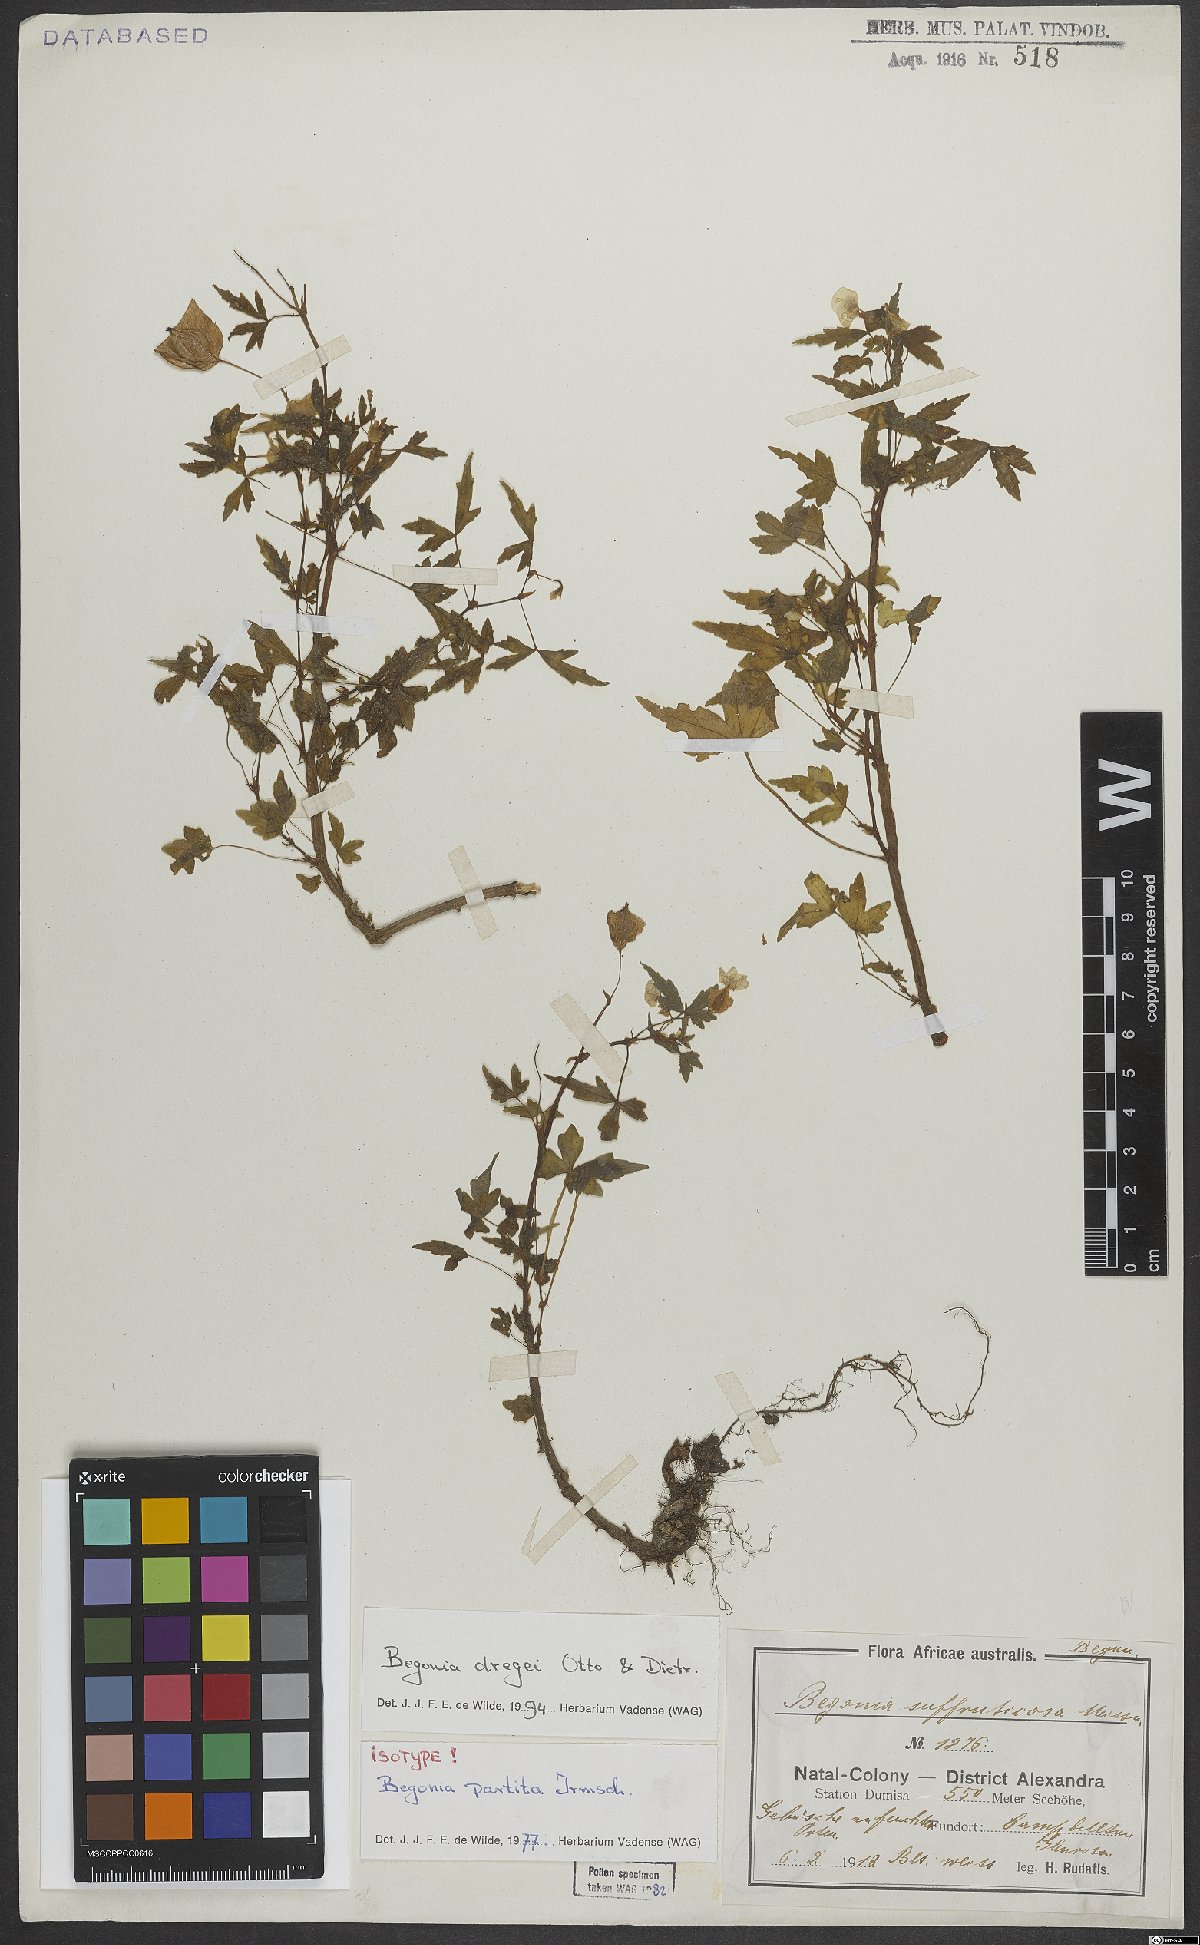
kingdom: Plantae
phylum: Tracheophyta
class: Magnoliopsida
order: Cucurbitales
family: Begoniaceae
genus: Begonia
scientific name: Begonia dregei
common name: Grape-leaf begonia
